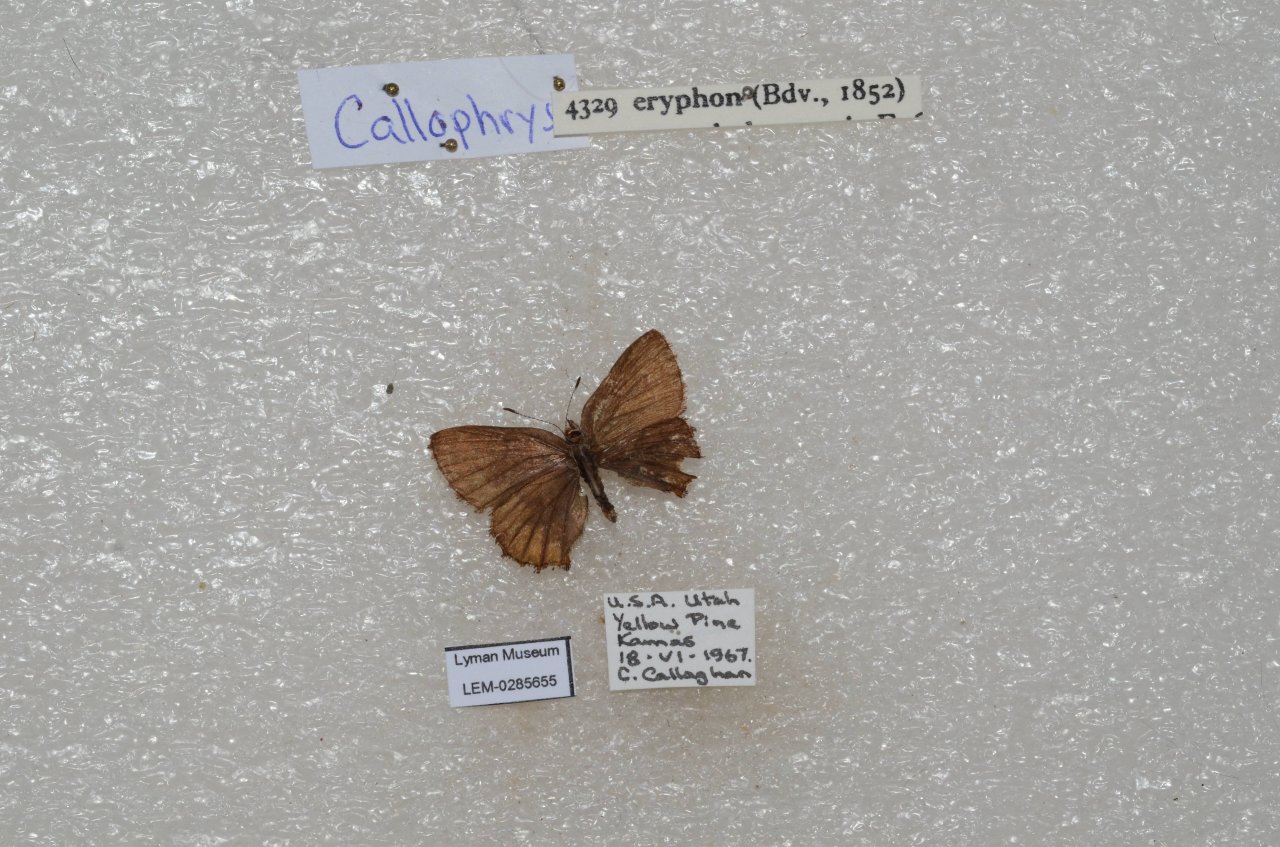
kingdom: Animalia
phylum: Arthropoda
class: Insecta
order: Lepidoptera
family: Lycaenidae
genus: Incisalia
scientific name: Incisalia eryphon
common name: Western Pine Elfin
